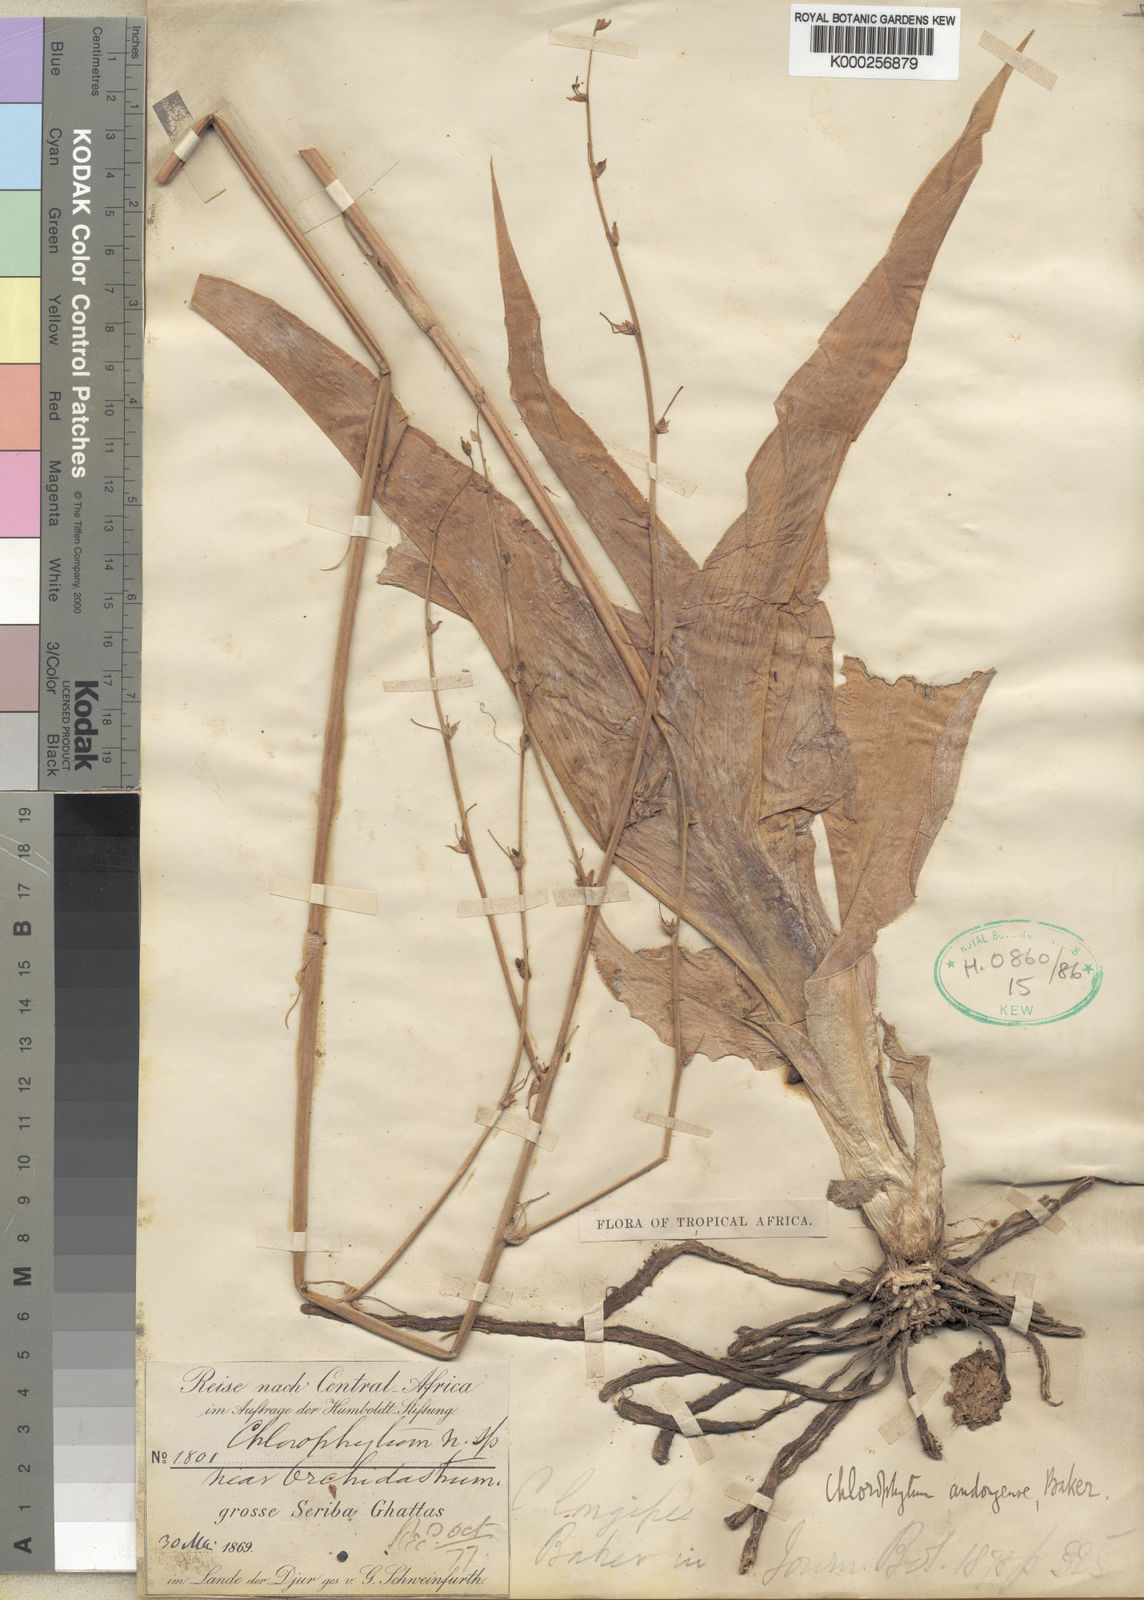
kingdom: Plantae
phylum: Tracheophyta
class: Liliopsida
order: Asparagales
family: Asparagaceae
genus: Chlorophytum
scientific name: Chlorophytum andongense
